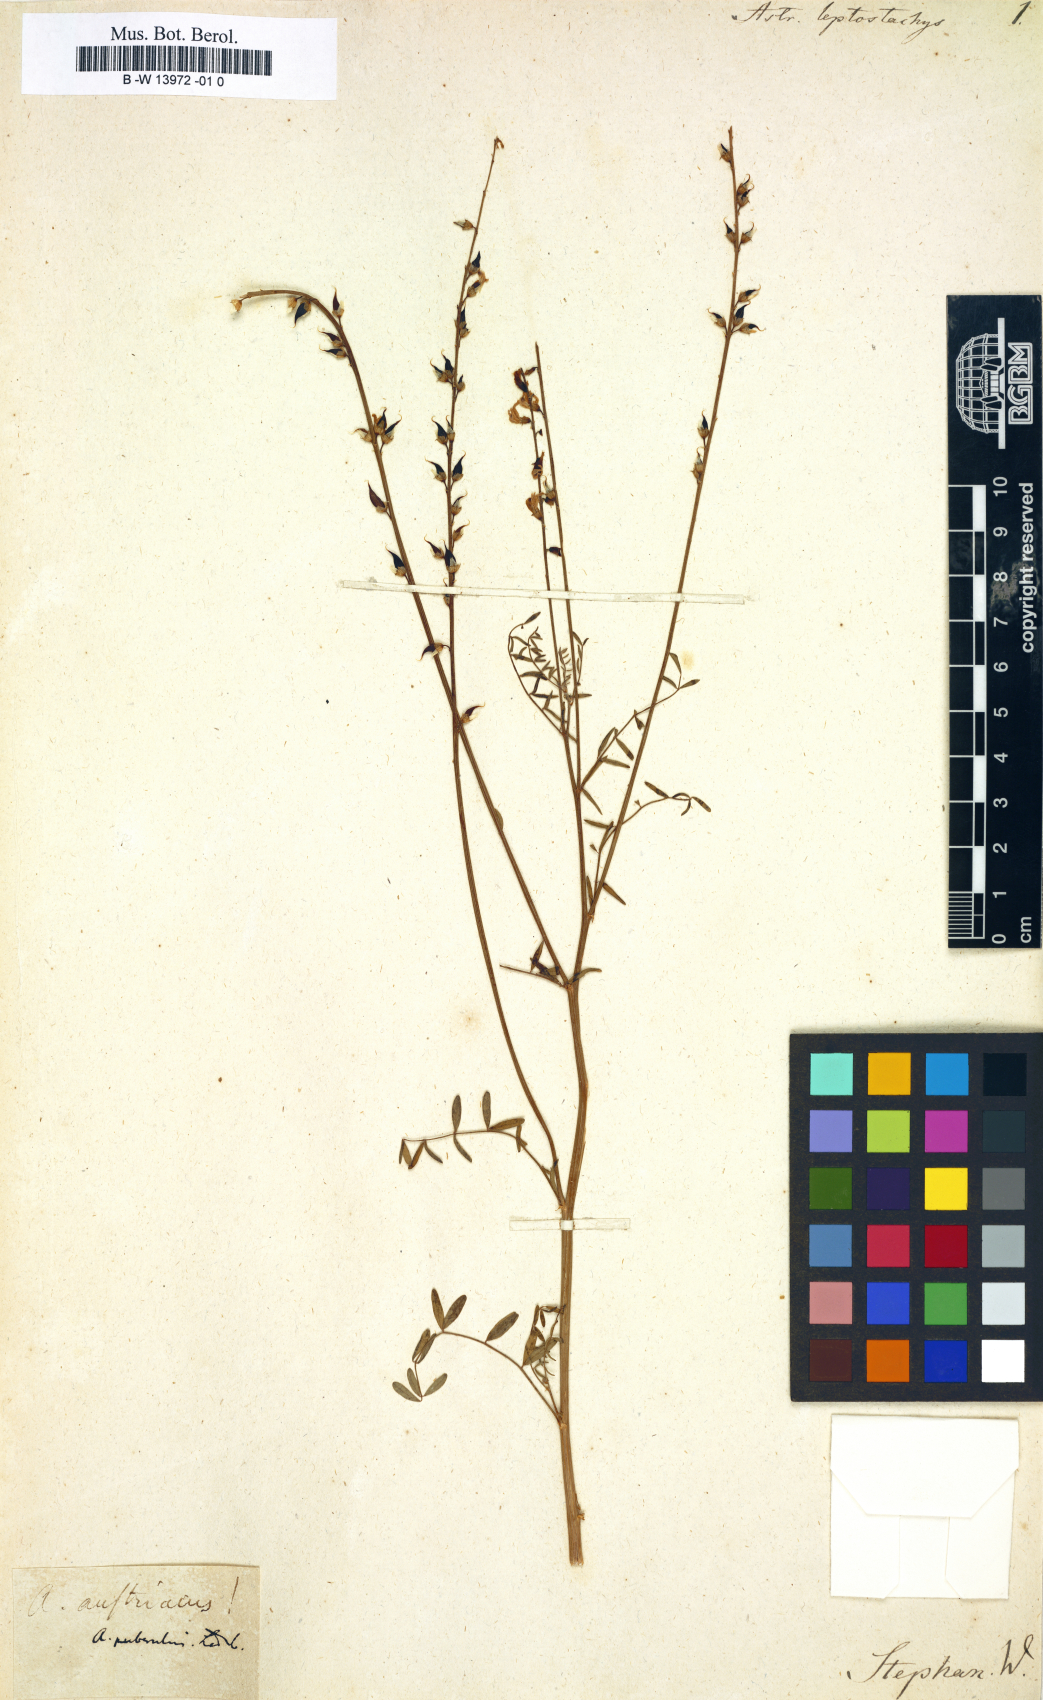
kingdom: Plantae
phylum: Tracheophyta
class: Magnoliopsida
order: Fabales
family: Fabaceae
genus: Astragalus
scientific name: Astragalus leptostachys
